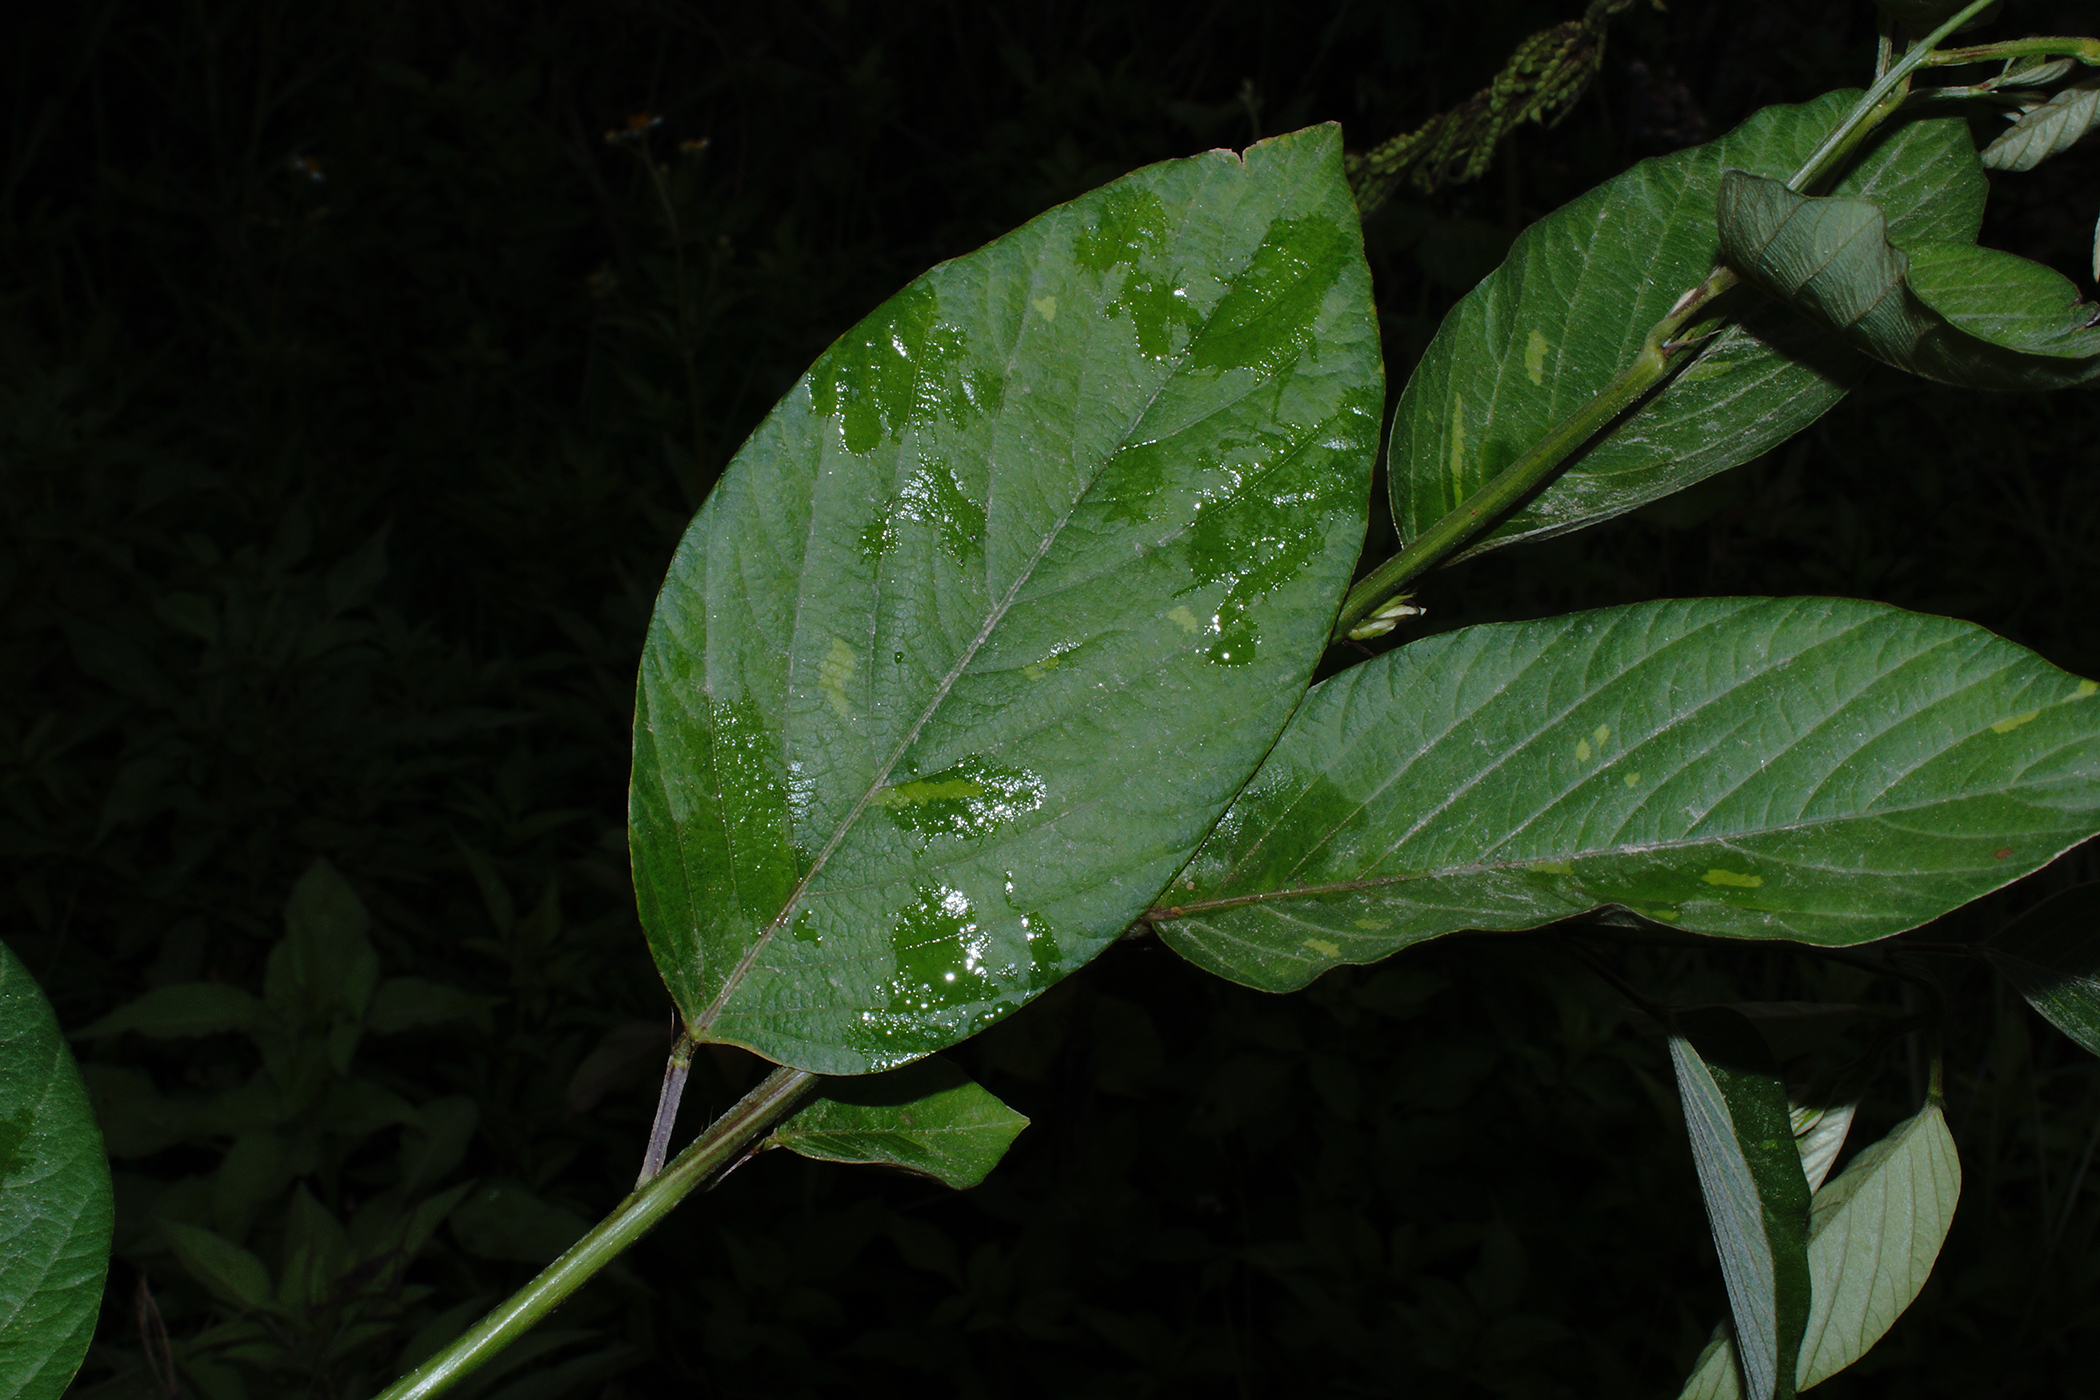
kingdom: Plantae
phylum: Tracheophyta
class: Magnoliopsida
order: Fabales
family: Fabaceae
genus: Desmodium
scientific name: Desmodium
